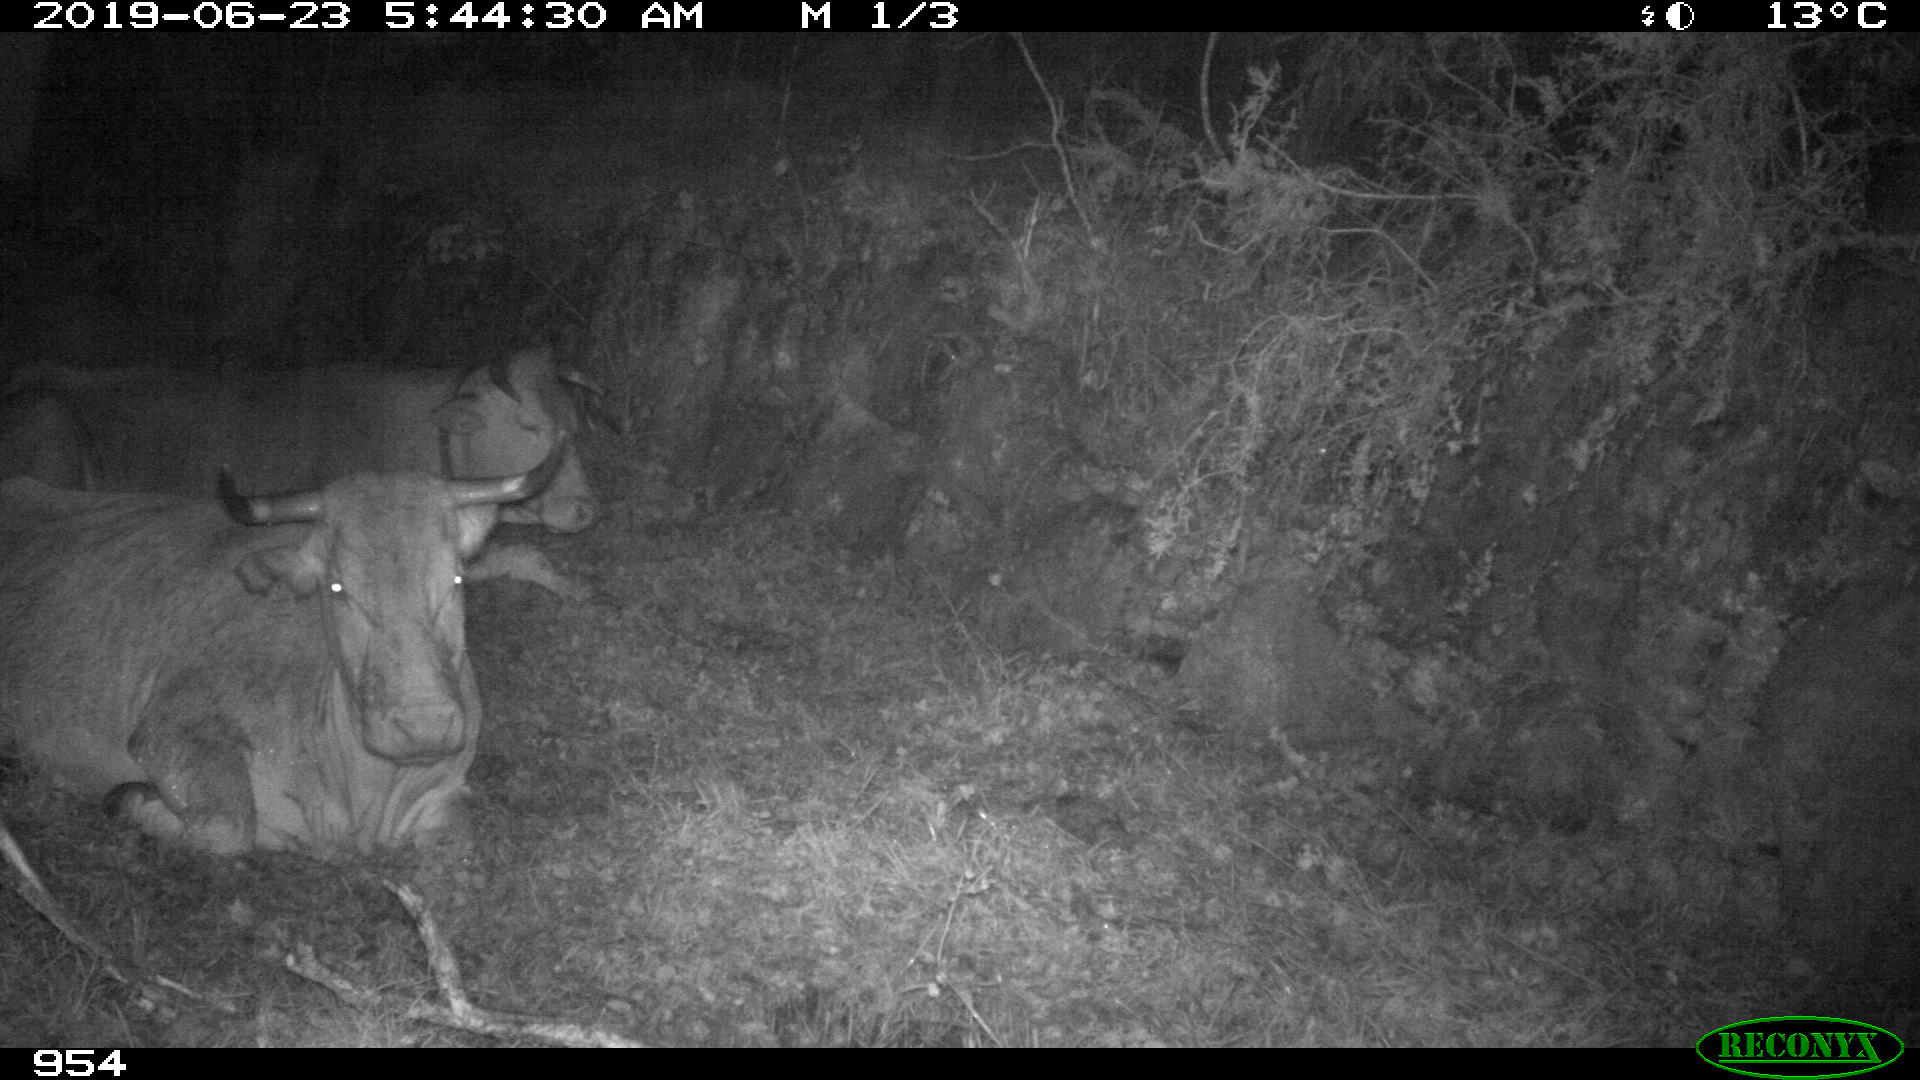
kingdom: Animalia
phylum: Chordata
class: Mammalia
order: Artiodactyla
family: Bovidae
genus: Bos
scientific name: Bos taurus
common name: Domesticated cattle
